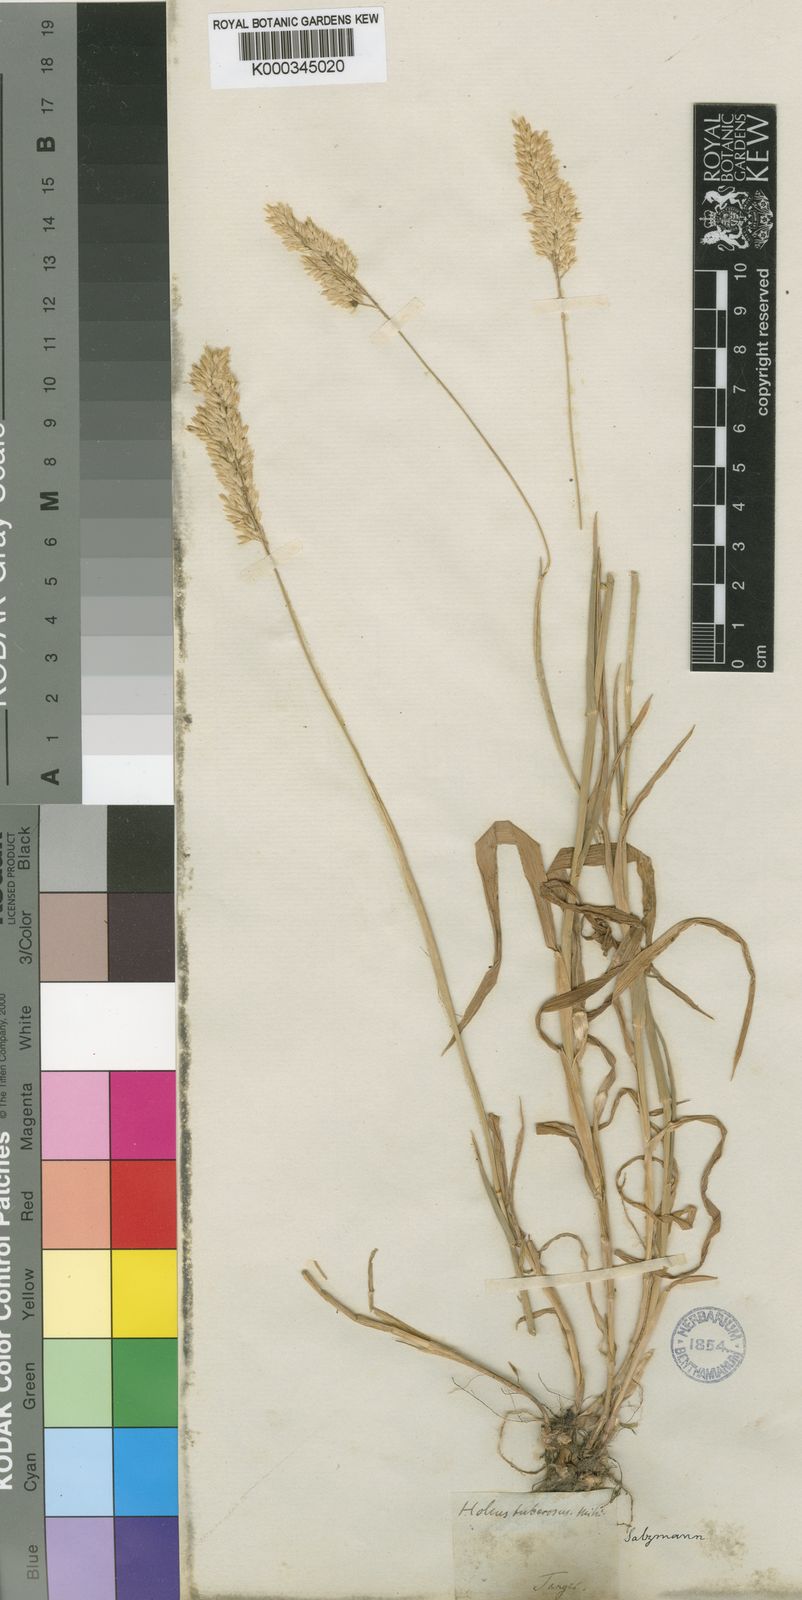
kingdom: Plantae
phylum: Tracheophyta
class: Liliopsida
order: Poales
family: Poaceae
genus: Holcus
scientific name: Holcus lanatus
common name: Yorkshire-fog
